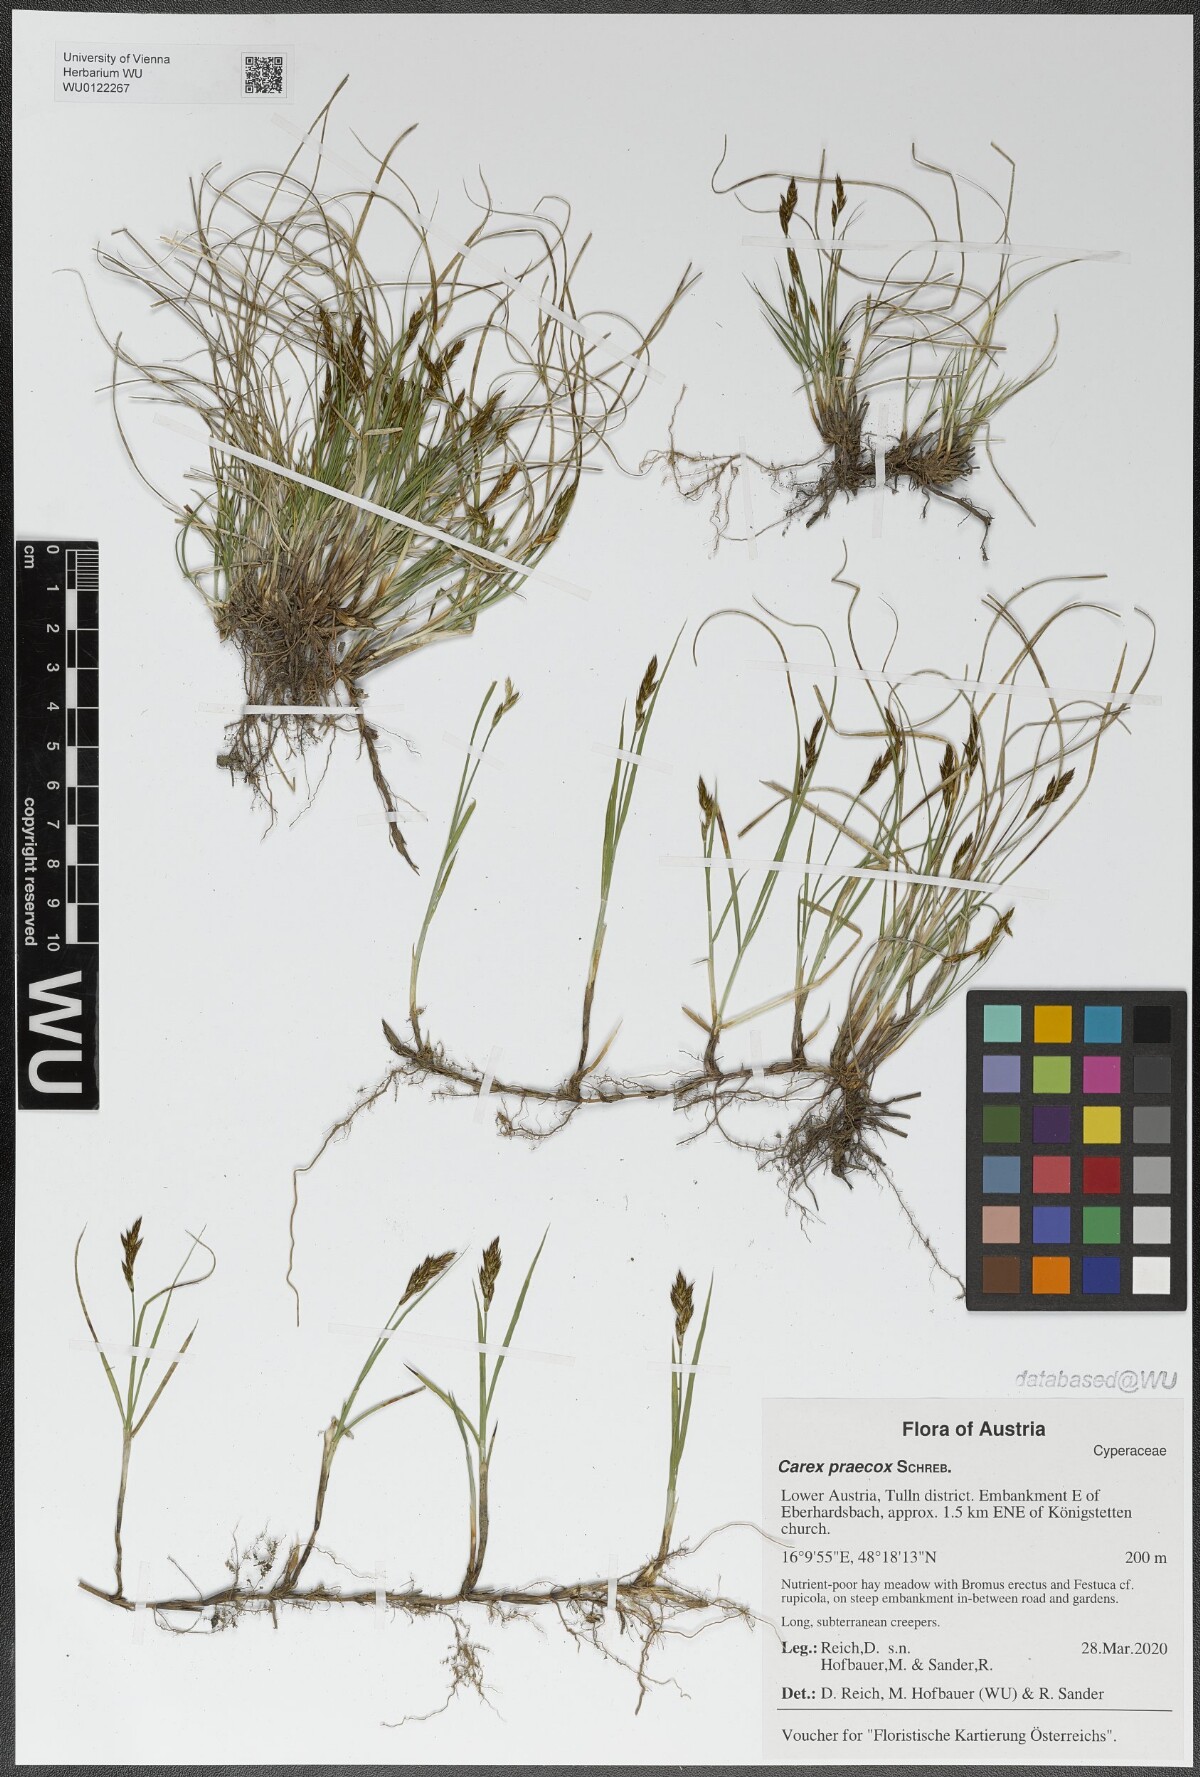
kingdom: Plantae
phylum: Tracheophyta
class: Liliopsida
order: Poales
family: Cyperaceae
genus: Carex
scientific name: Carex praecox
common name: Early sedge
